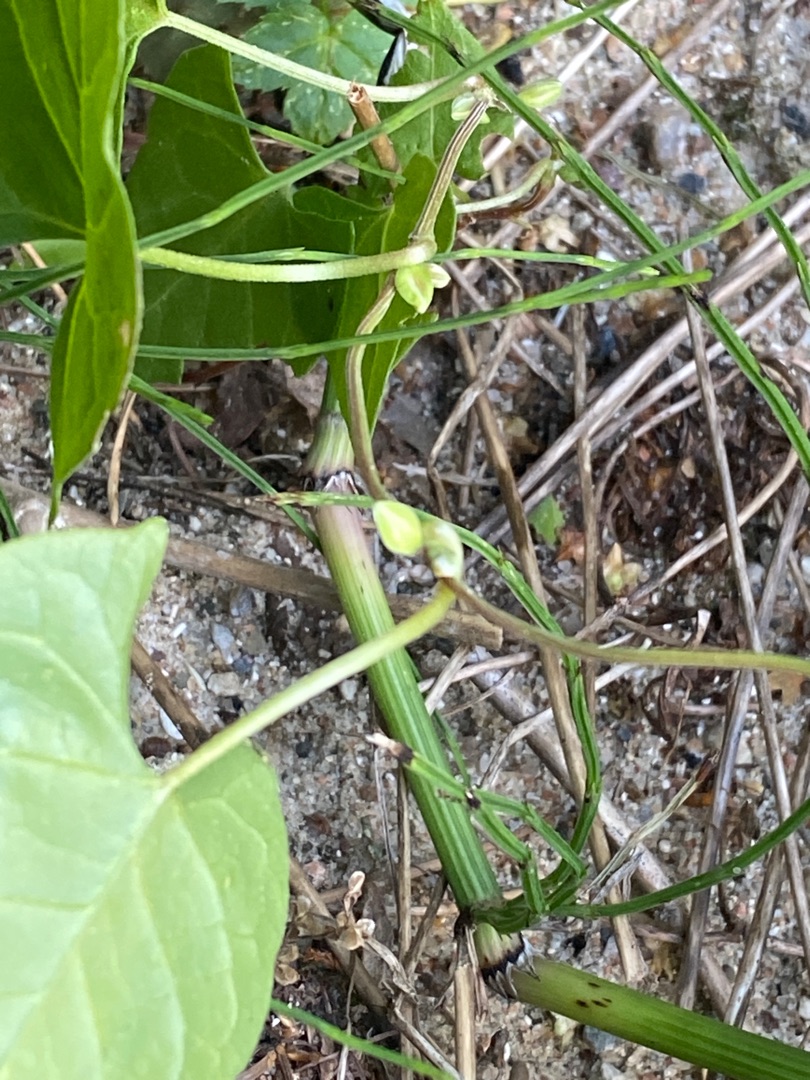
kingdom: Plantae
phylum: Tracheophyta
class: Magnoliopsida
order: Caryophyllales
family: Polygonaceae
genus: Fallopia
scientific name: Fallopia convolvulus
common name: Snerle-pileurt
